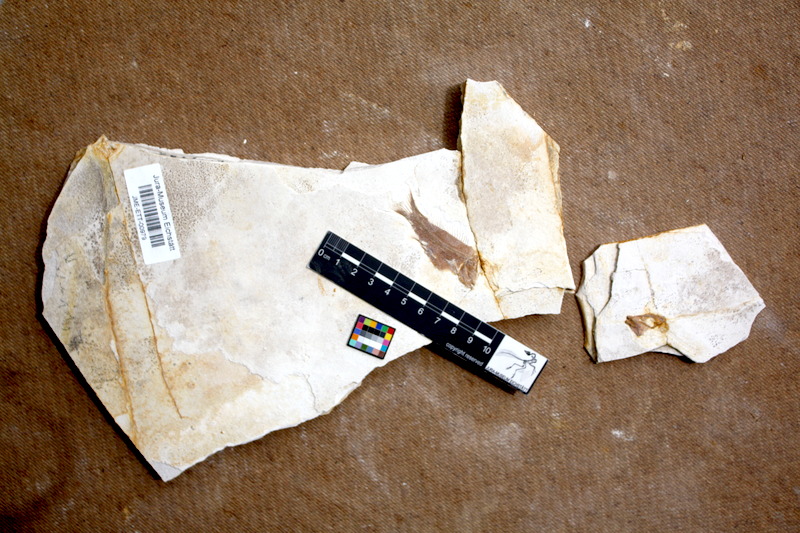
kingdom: Animalia
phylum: Chordata
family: Macrosemiidae
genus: Notagogus
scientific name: Notagogus denticulatus
